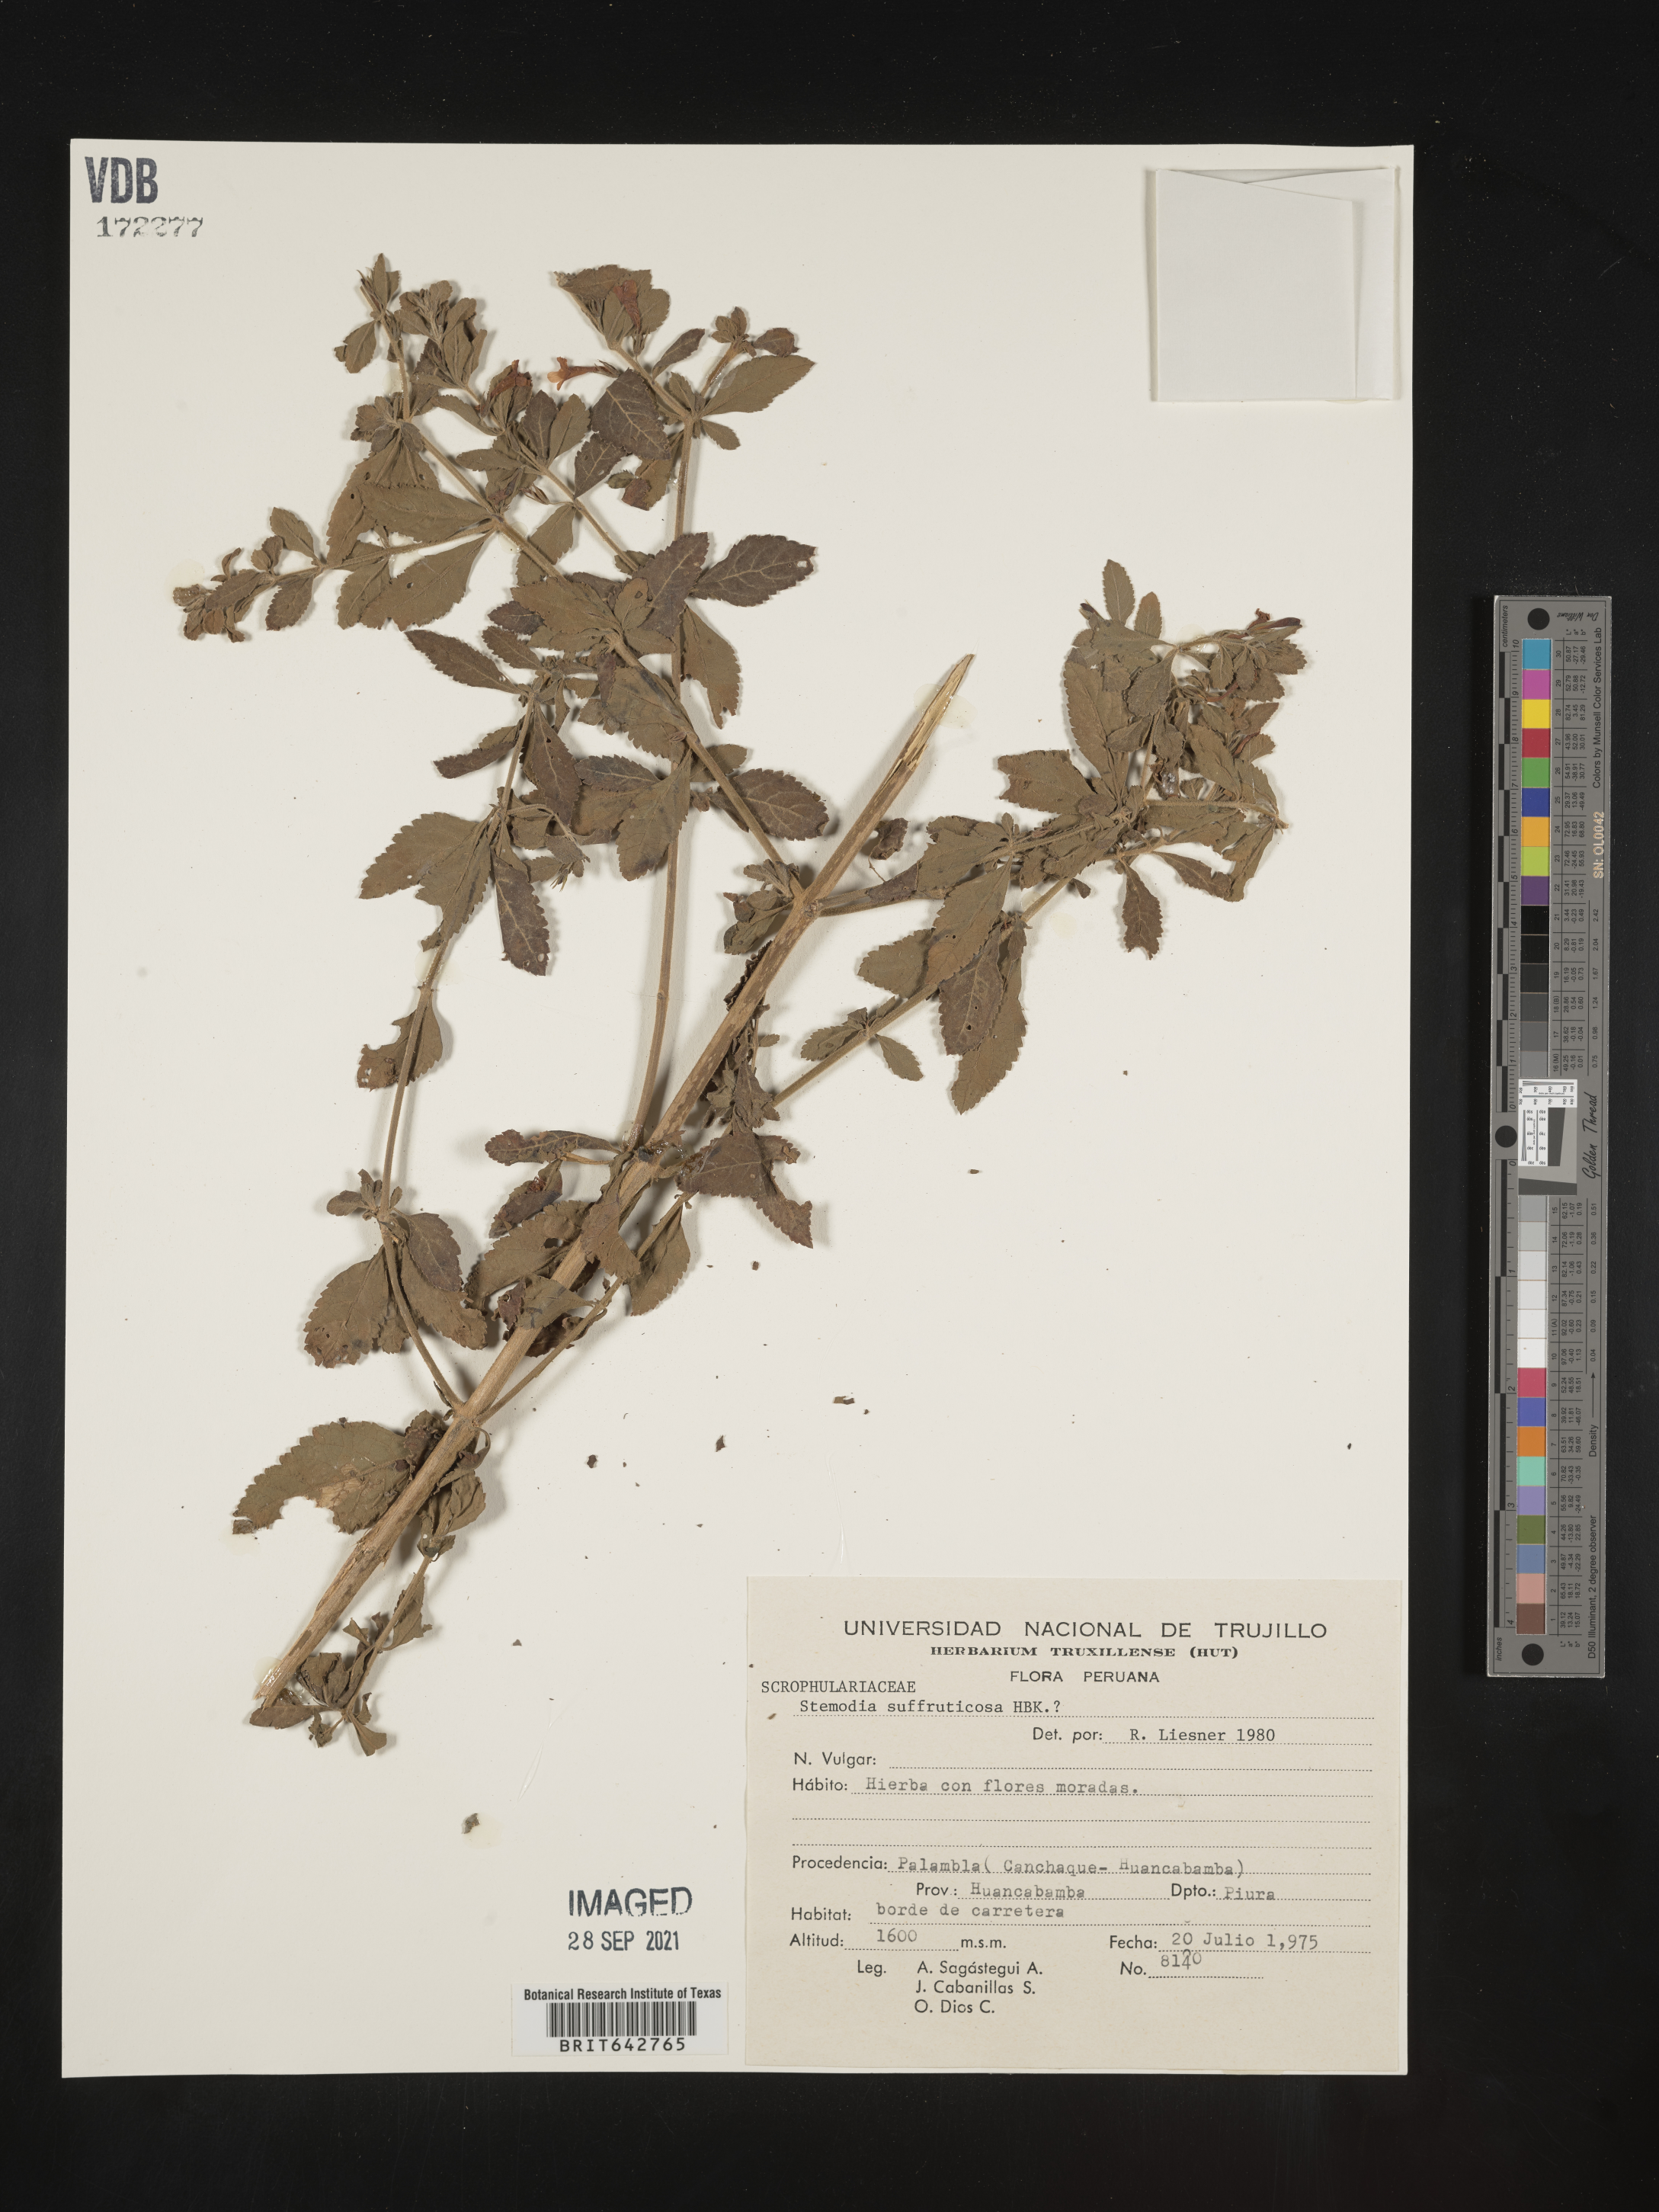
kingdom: Plantae
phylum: Tracheophyta
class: Magnoliopsida
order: Lamiales
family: Plantaginaceae
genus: Stemodia
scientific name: Stemodia
